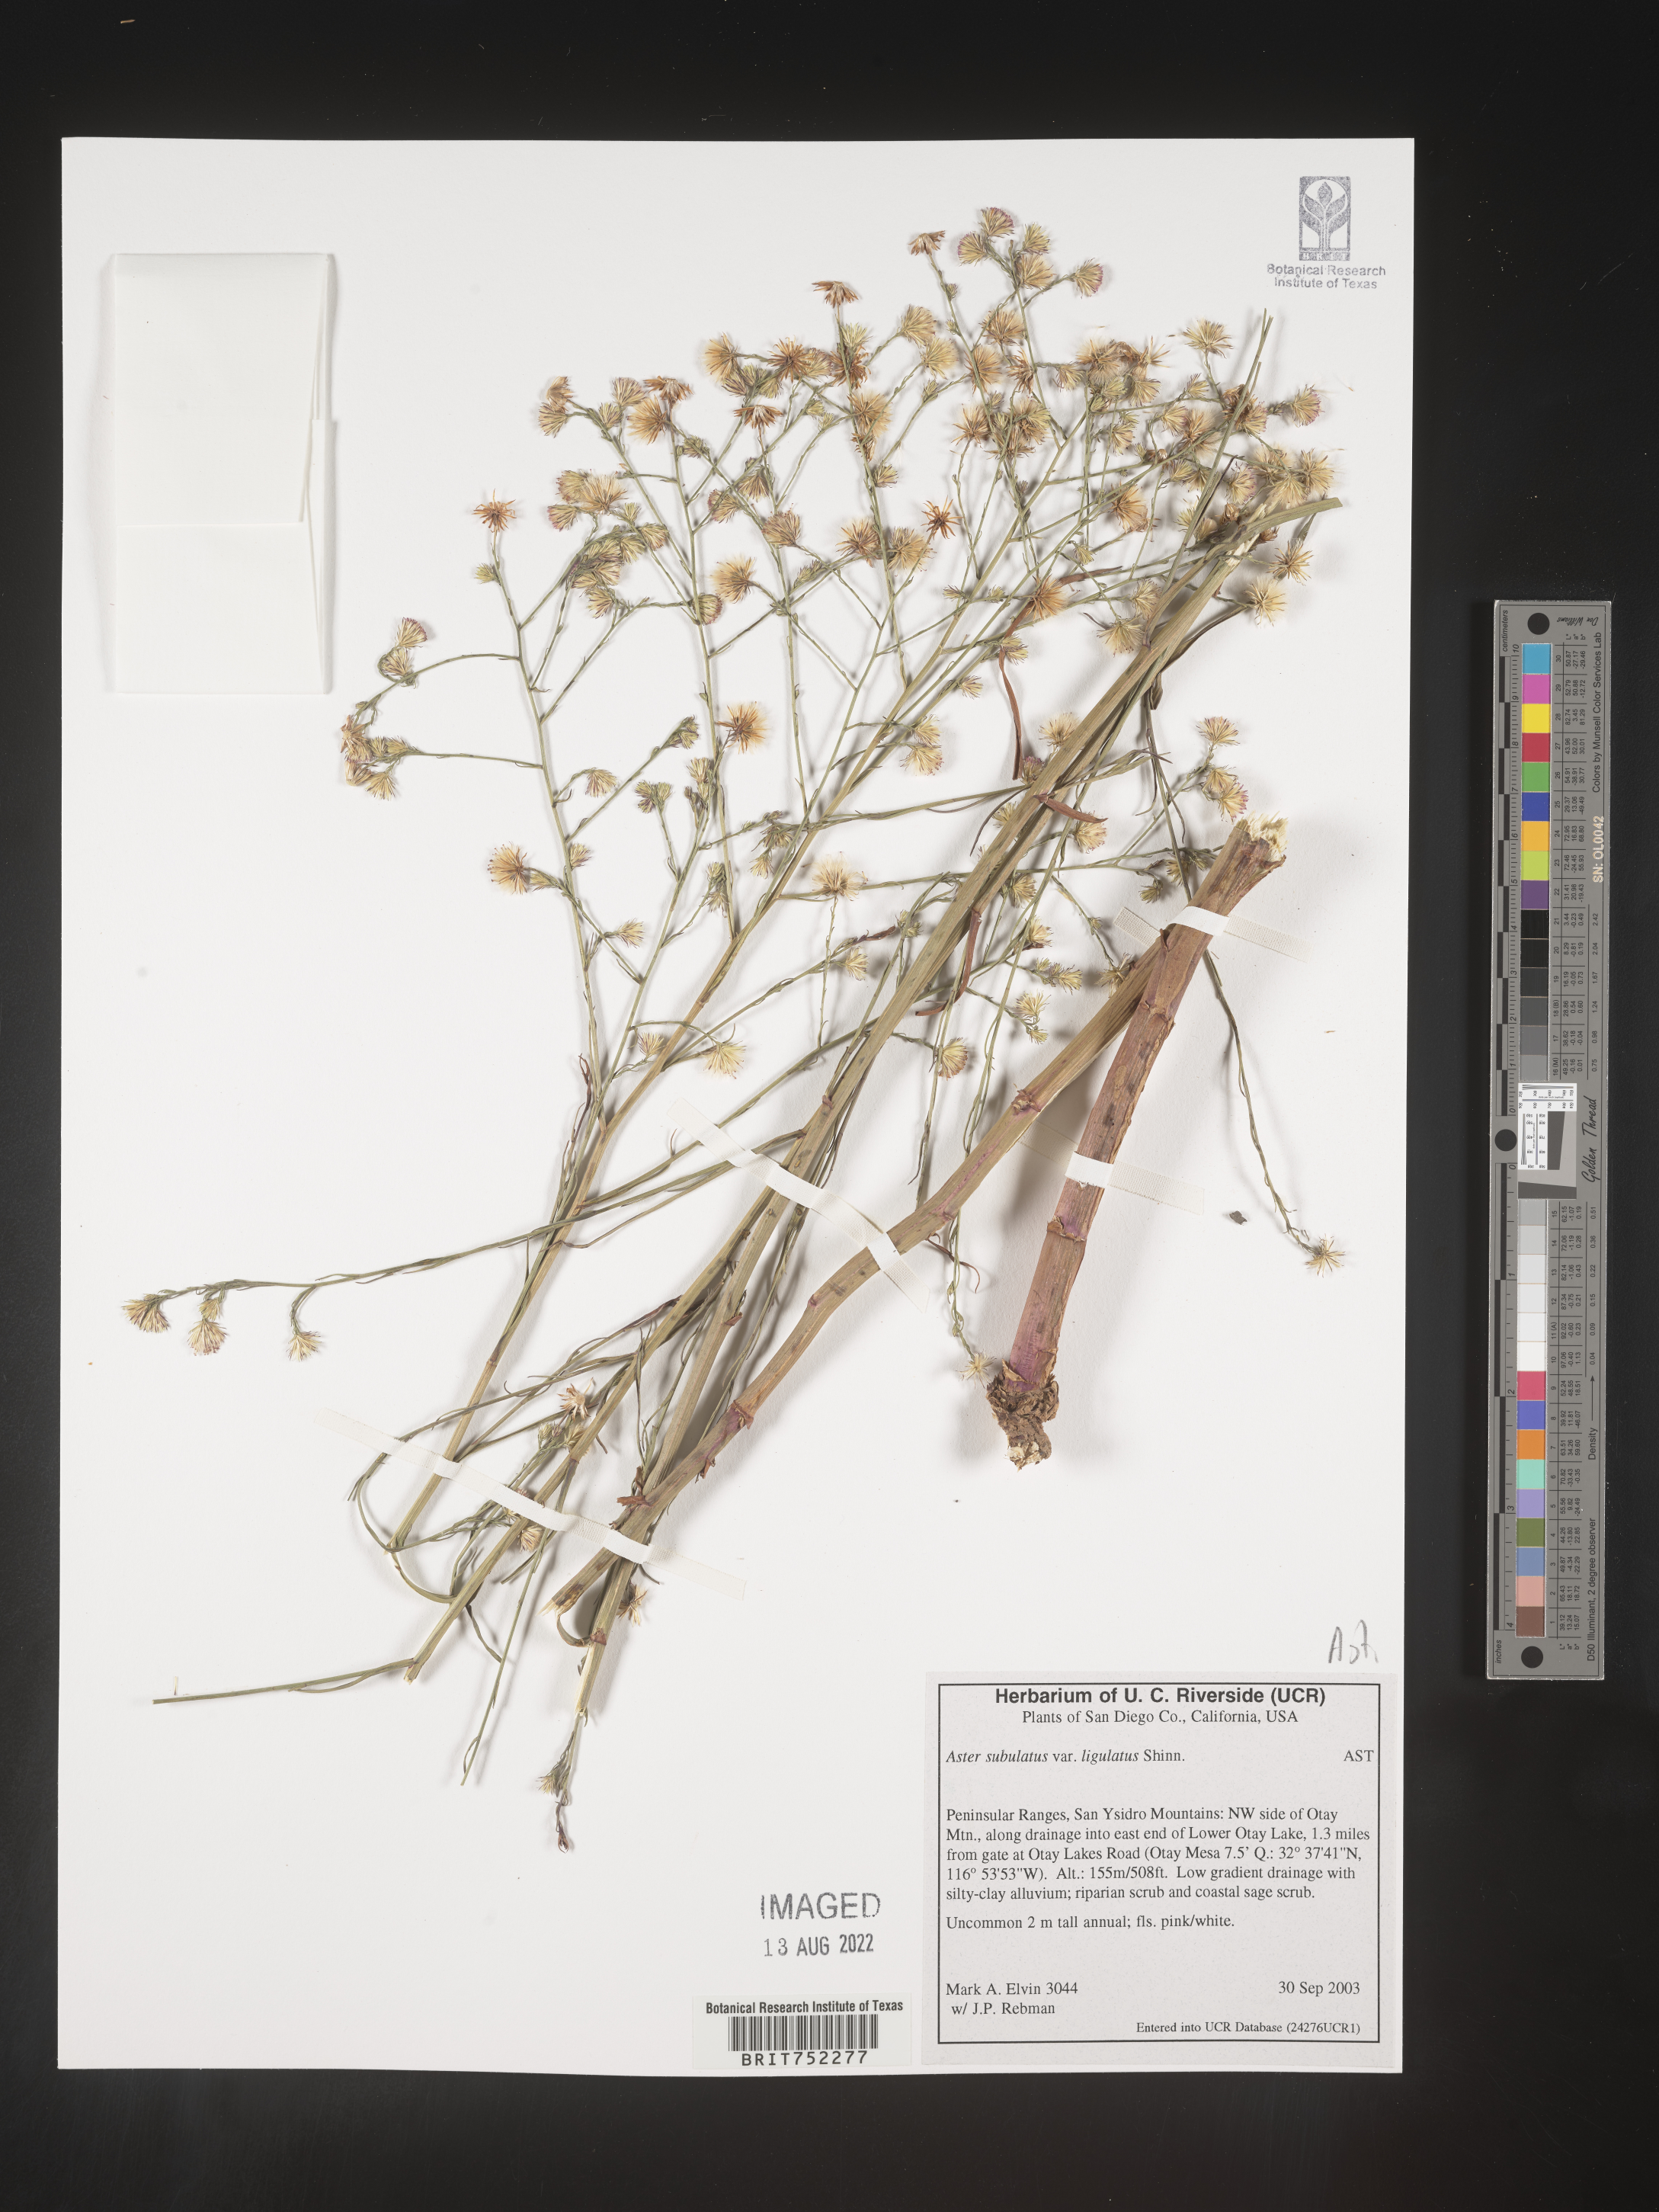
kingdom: Plantae
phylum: Tracheophyta
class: Magnoliopsida
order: Asterales
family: Asteraceae
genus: Symphyotrichum
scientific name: Symphyotrichum expansum
